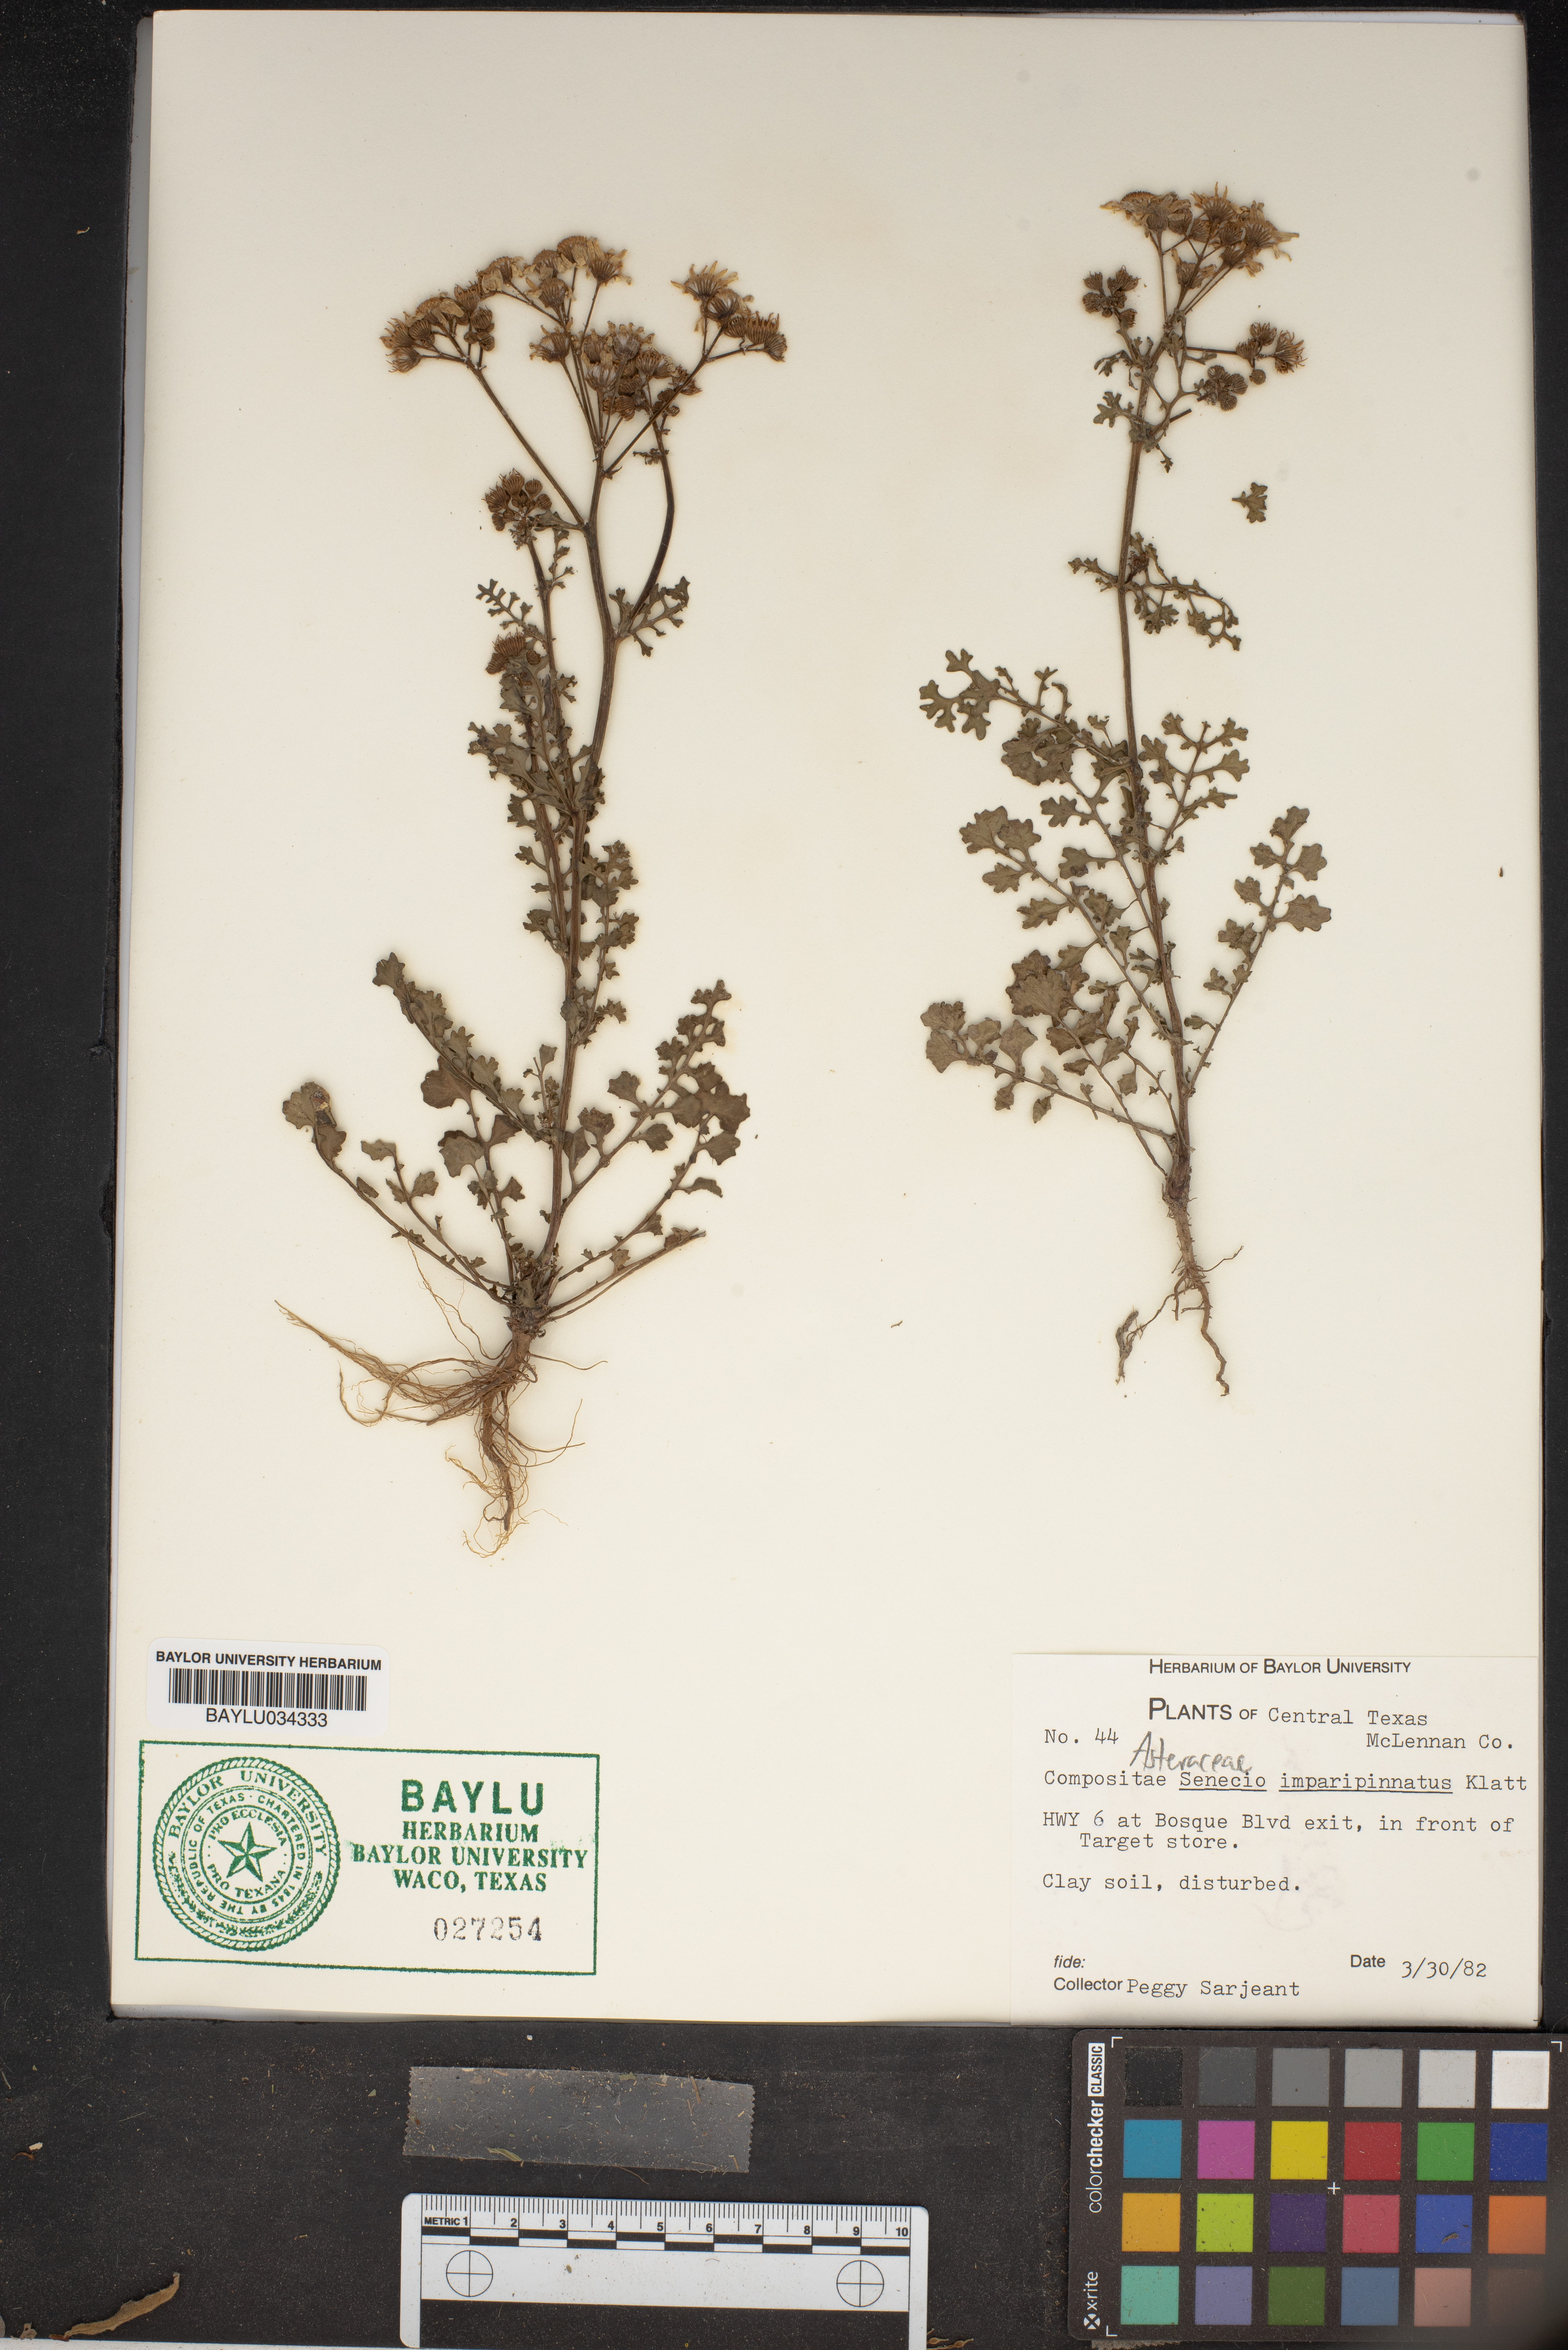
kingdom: Plantae
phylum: Tracheophyta
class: Magnoliopsida
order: Asterales
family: Asteraceae
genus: Packera
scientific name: Packera tampicana
